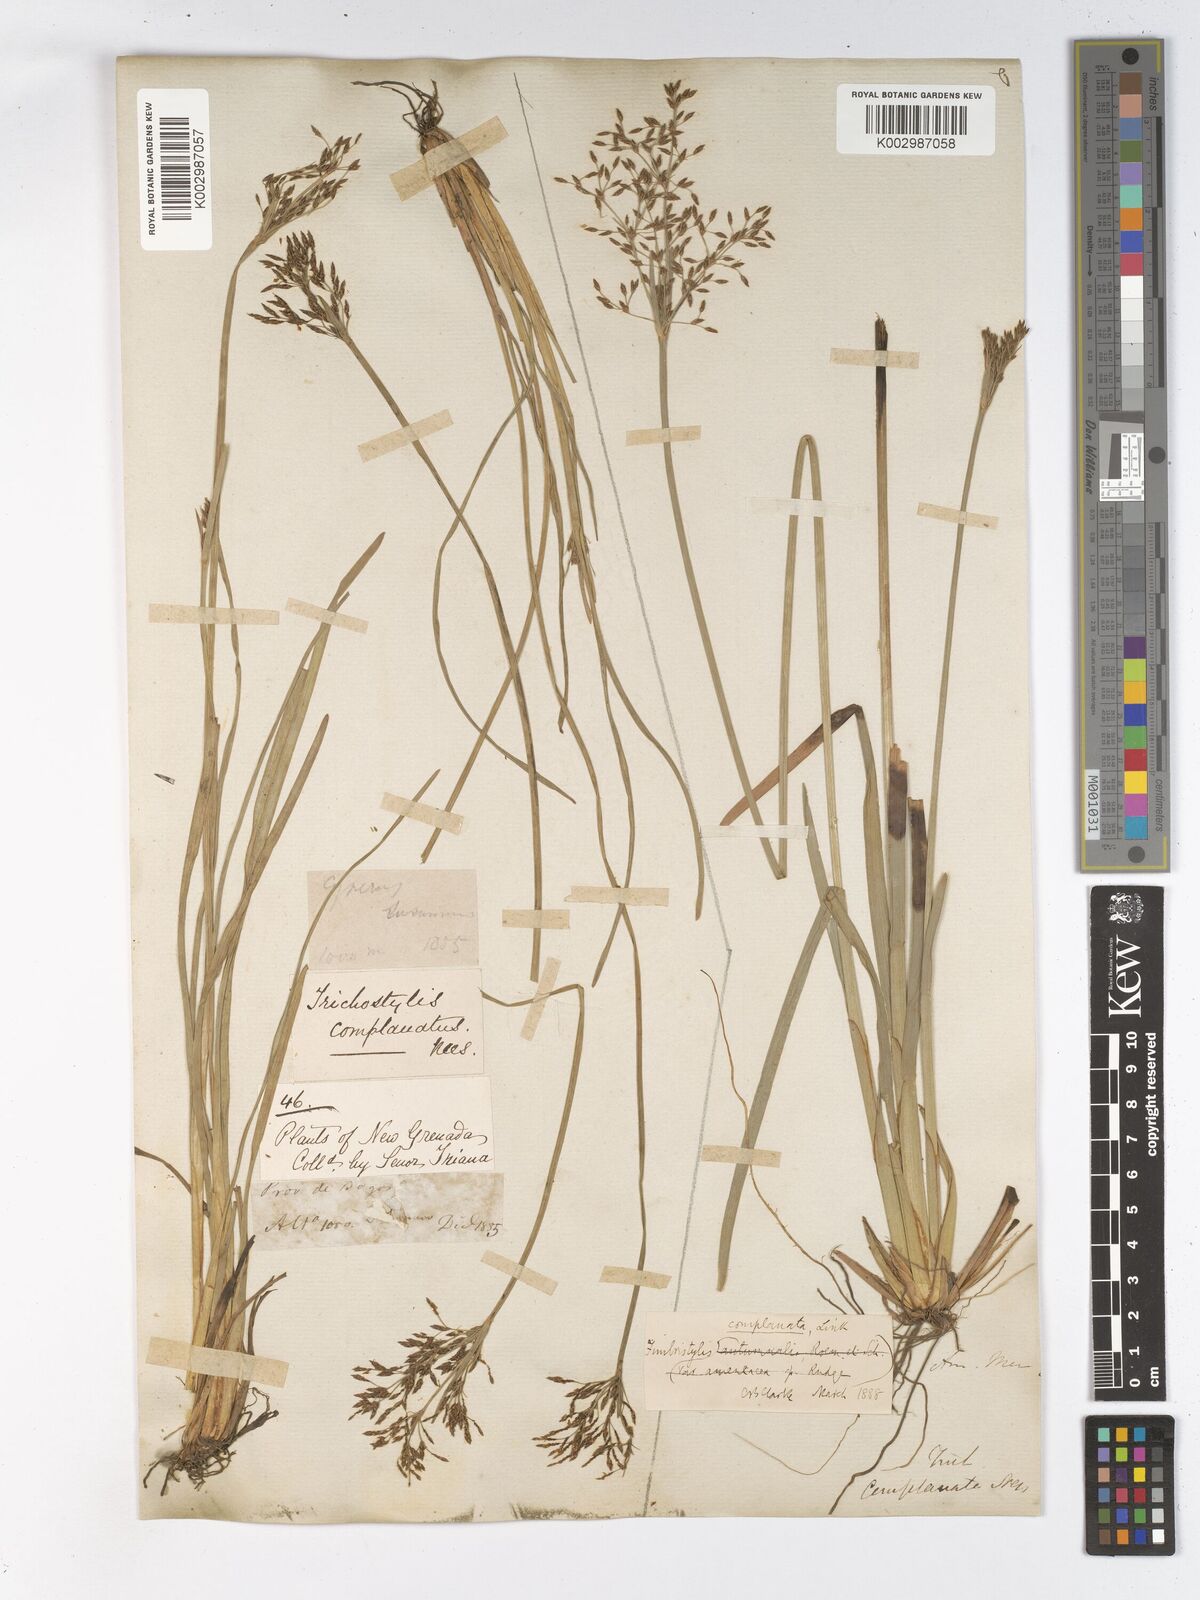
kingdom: Plantae
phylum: Tracheophyta
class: Liliopsida
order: Poales
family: Cyperaceae
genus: Fimbristylis
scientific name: Fimbristylis complanata
